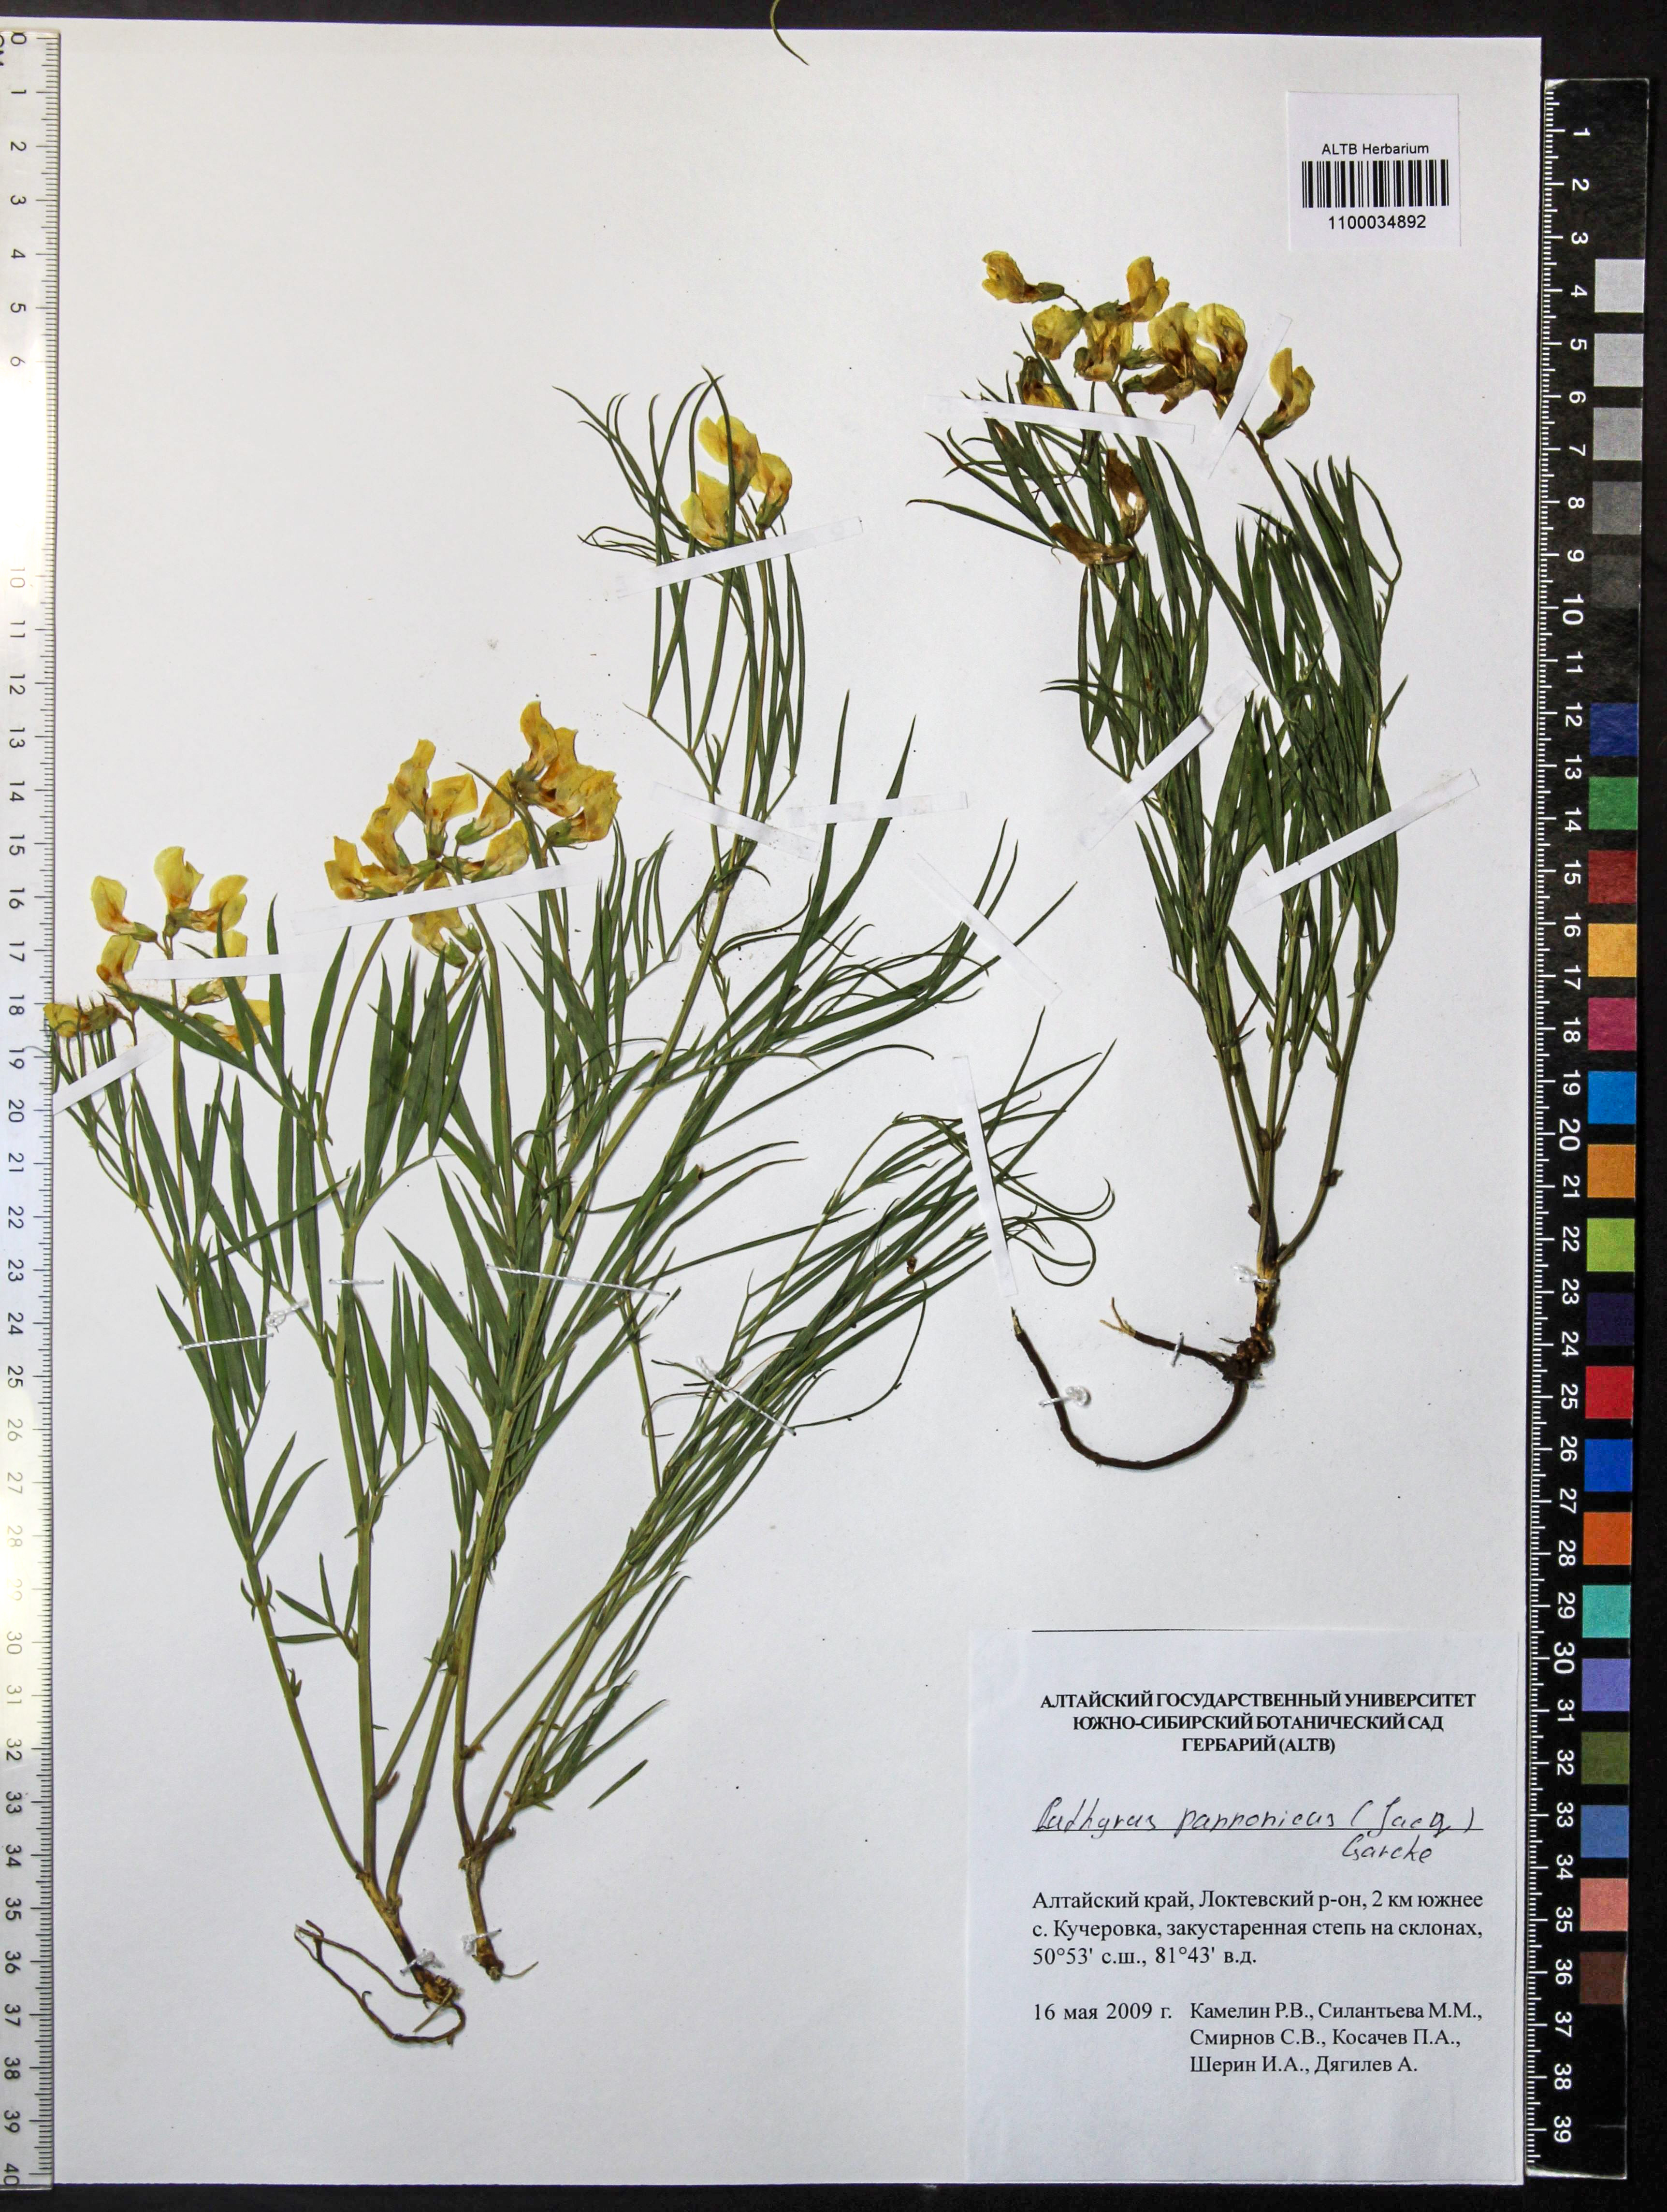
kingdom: Plantae
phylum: Tracheophyta
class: Magnoliopsida
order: Fabales
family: Fabaceae
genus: Lathyrus
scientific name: Lathyrus pannonicus
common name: Pea
